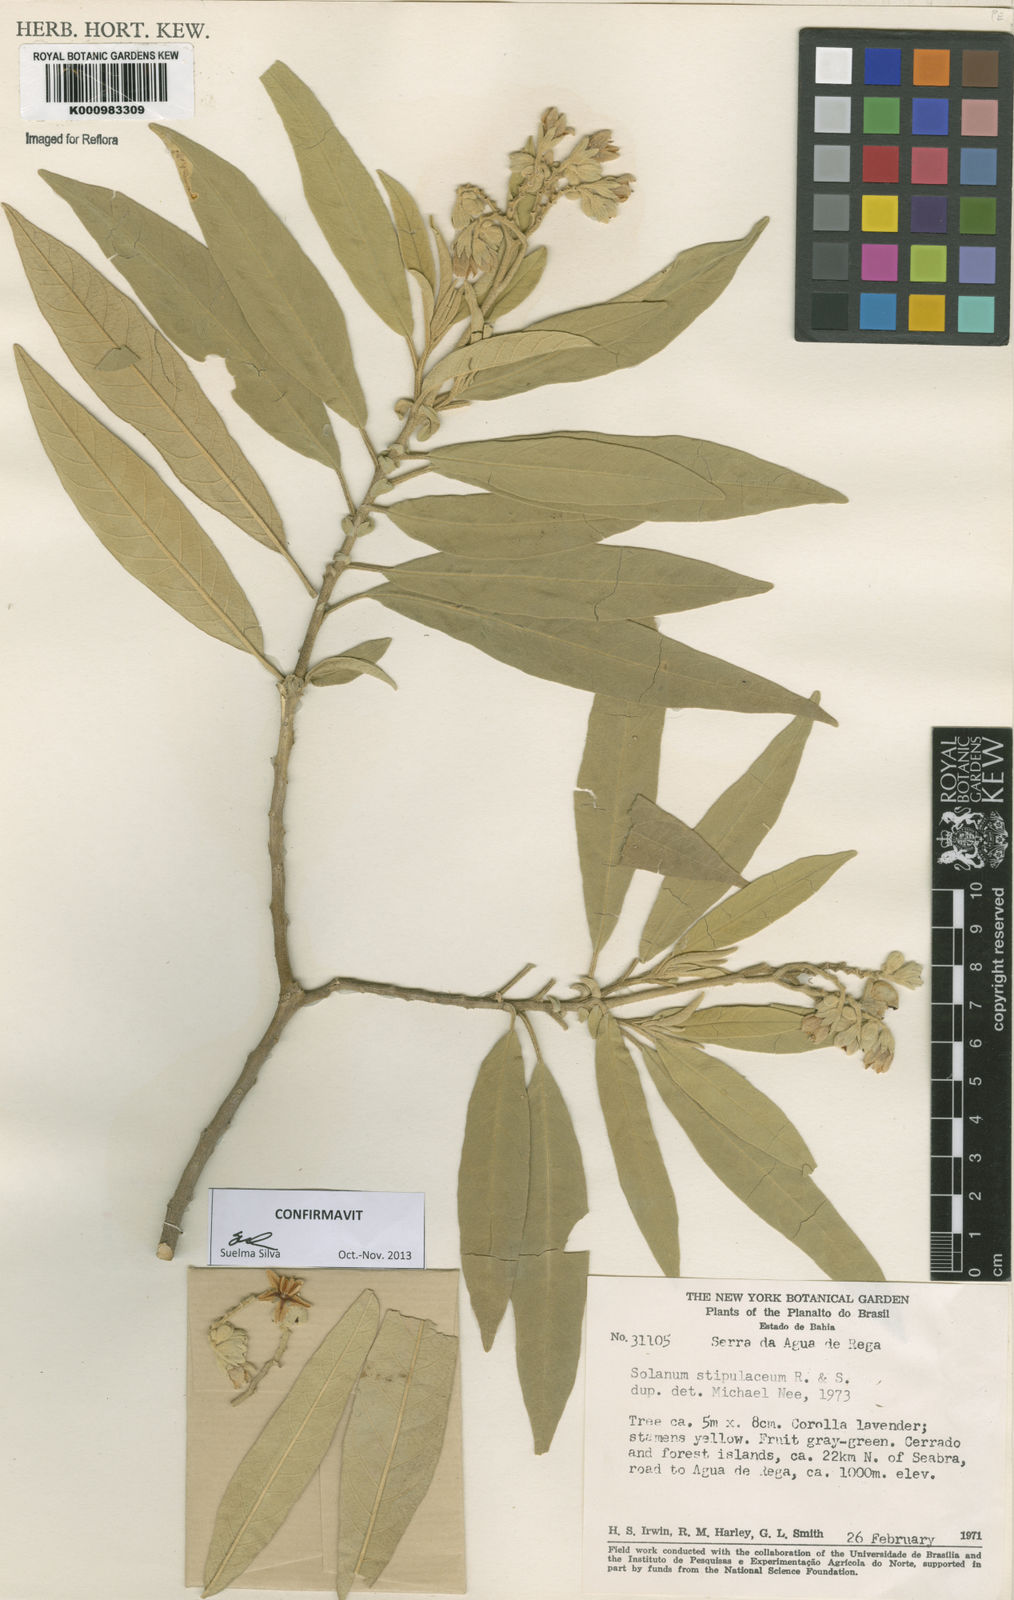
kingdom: Plantae
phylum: Tracheophyta
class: Magnoliopsida
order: Solanales
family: Solanaceae
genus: Solanum
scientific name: Solanum stipulaceum
